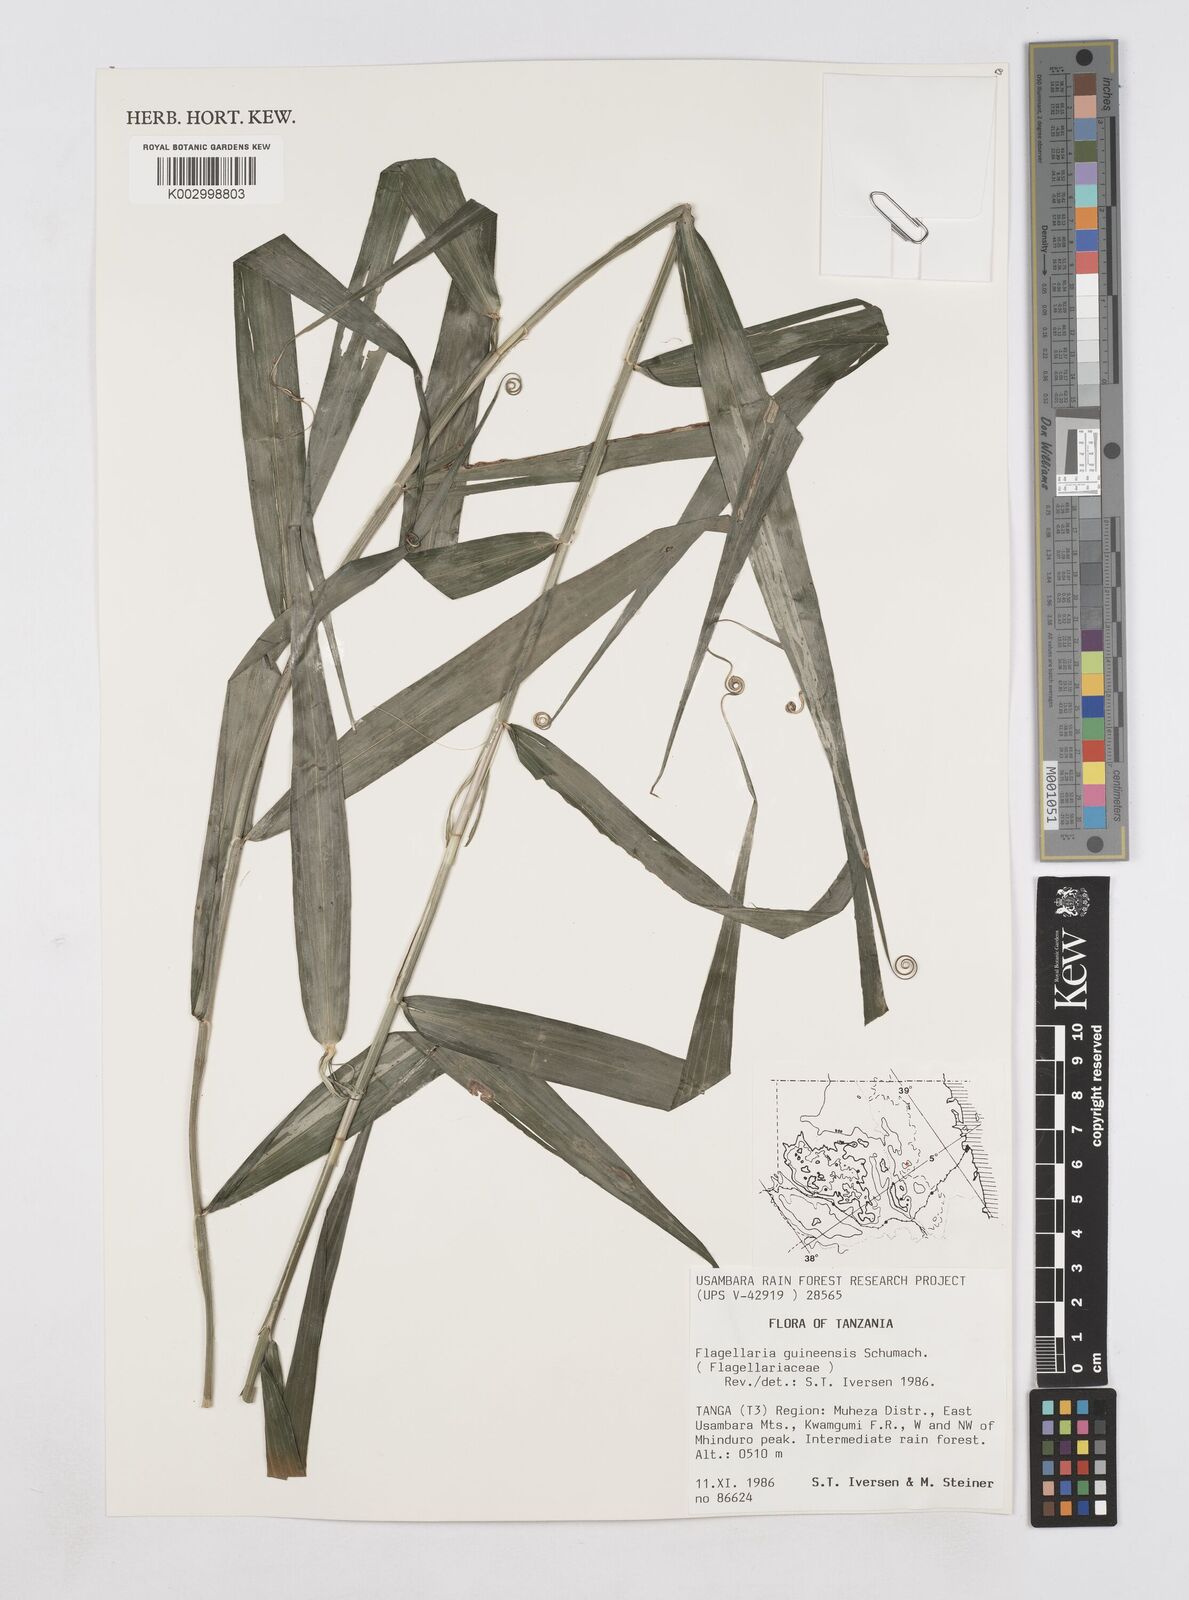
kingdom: Plantae
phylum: Tracheophyta
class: Liliopsida
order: Poales
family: Flagellariaceae
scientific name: Flagellariaceae
